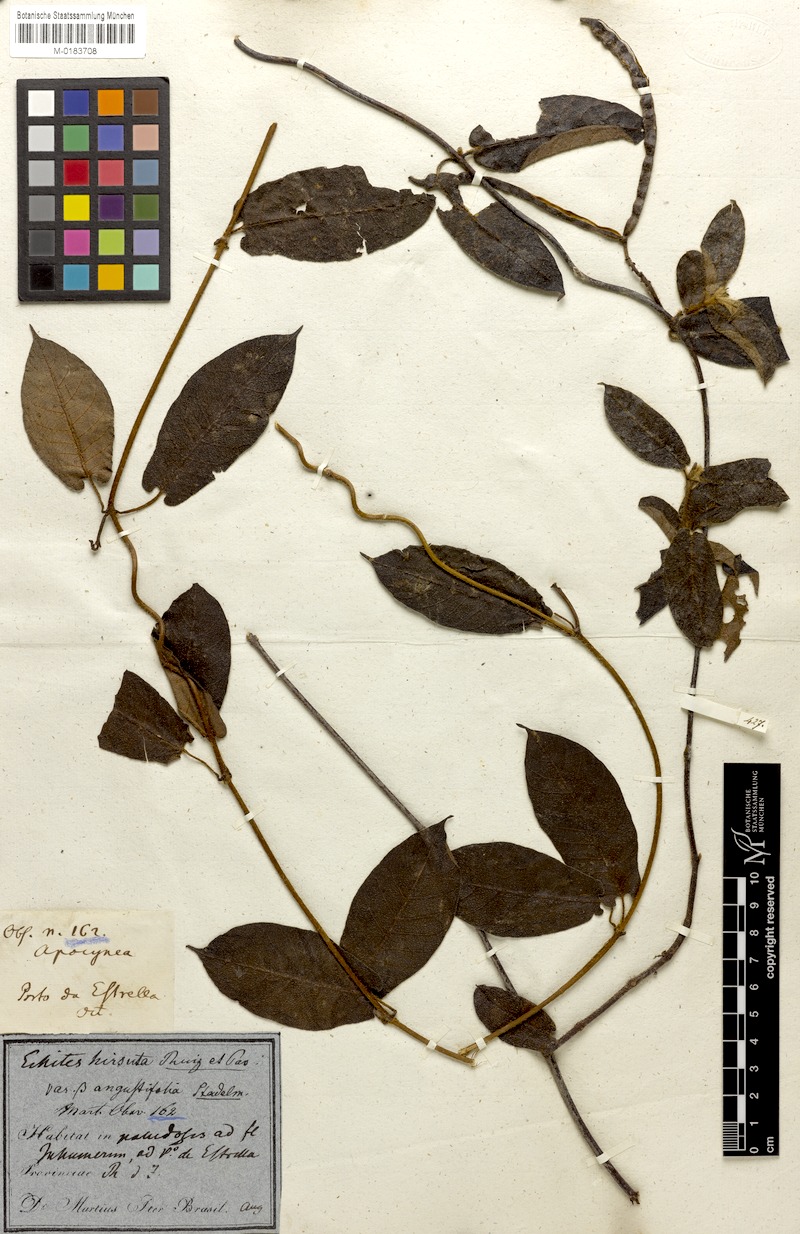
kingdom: Plantae
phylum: Tracheophyta
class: Magnoliopsida
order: Gentianales
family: Apocynaceae
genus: Mandevilla
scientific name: Mandevilla hirsuta
